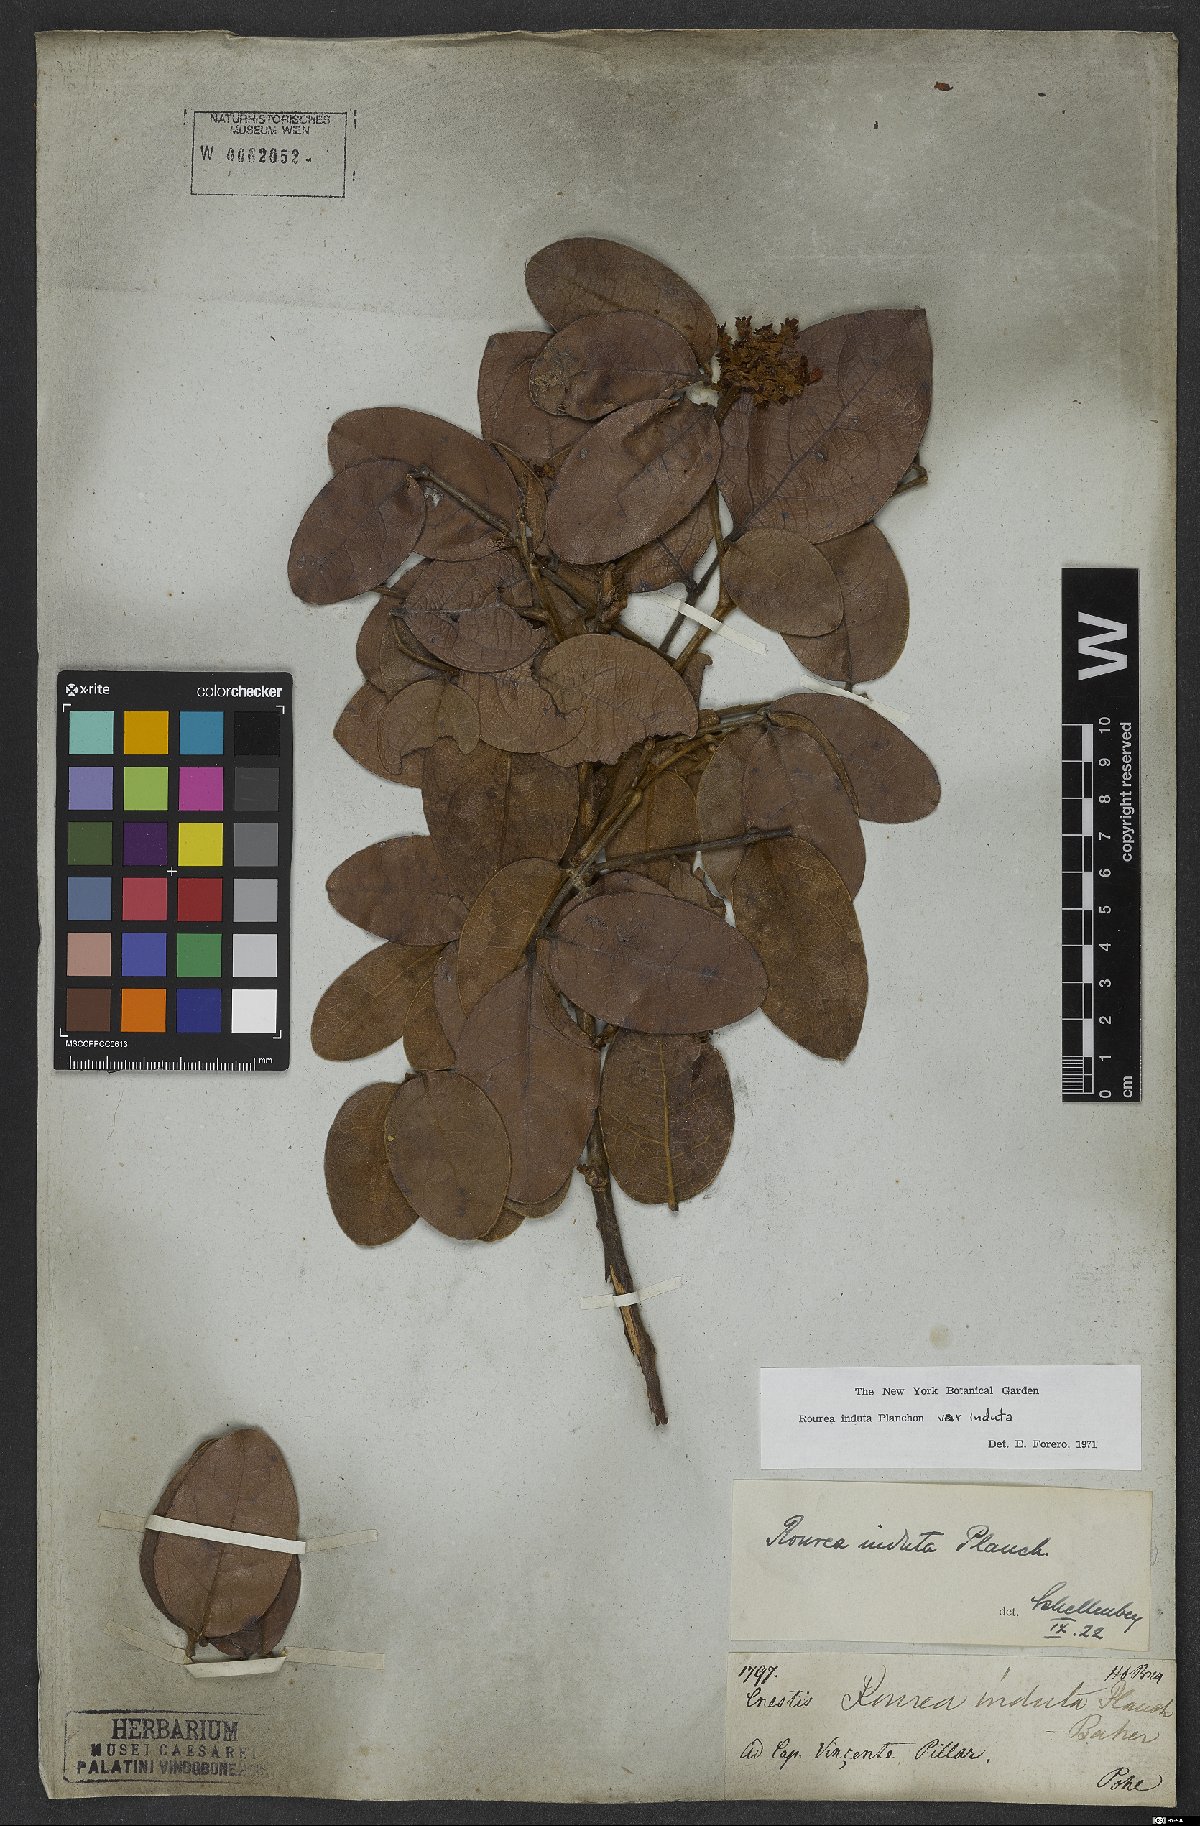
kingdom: Plantae
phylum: Tracheophyta
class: Magnoliopsida
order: Oxalidales
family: Connaraceae
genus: Rourea
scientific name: Rourea induta
